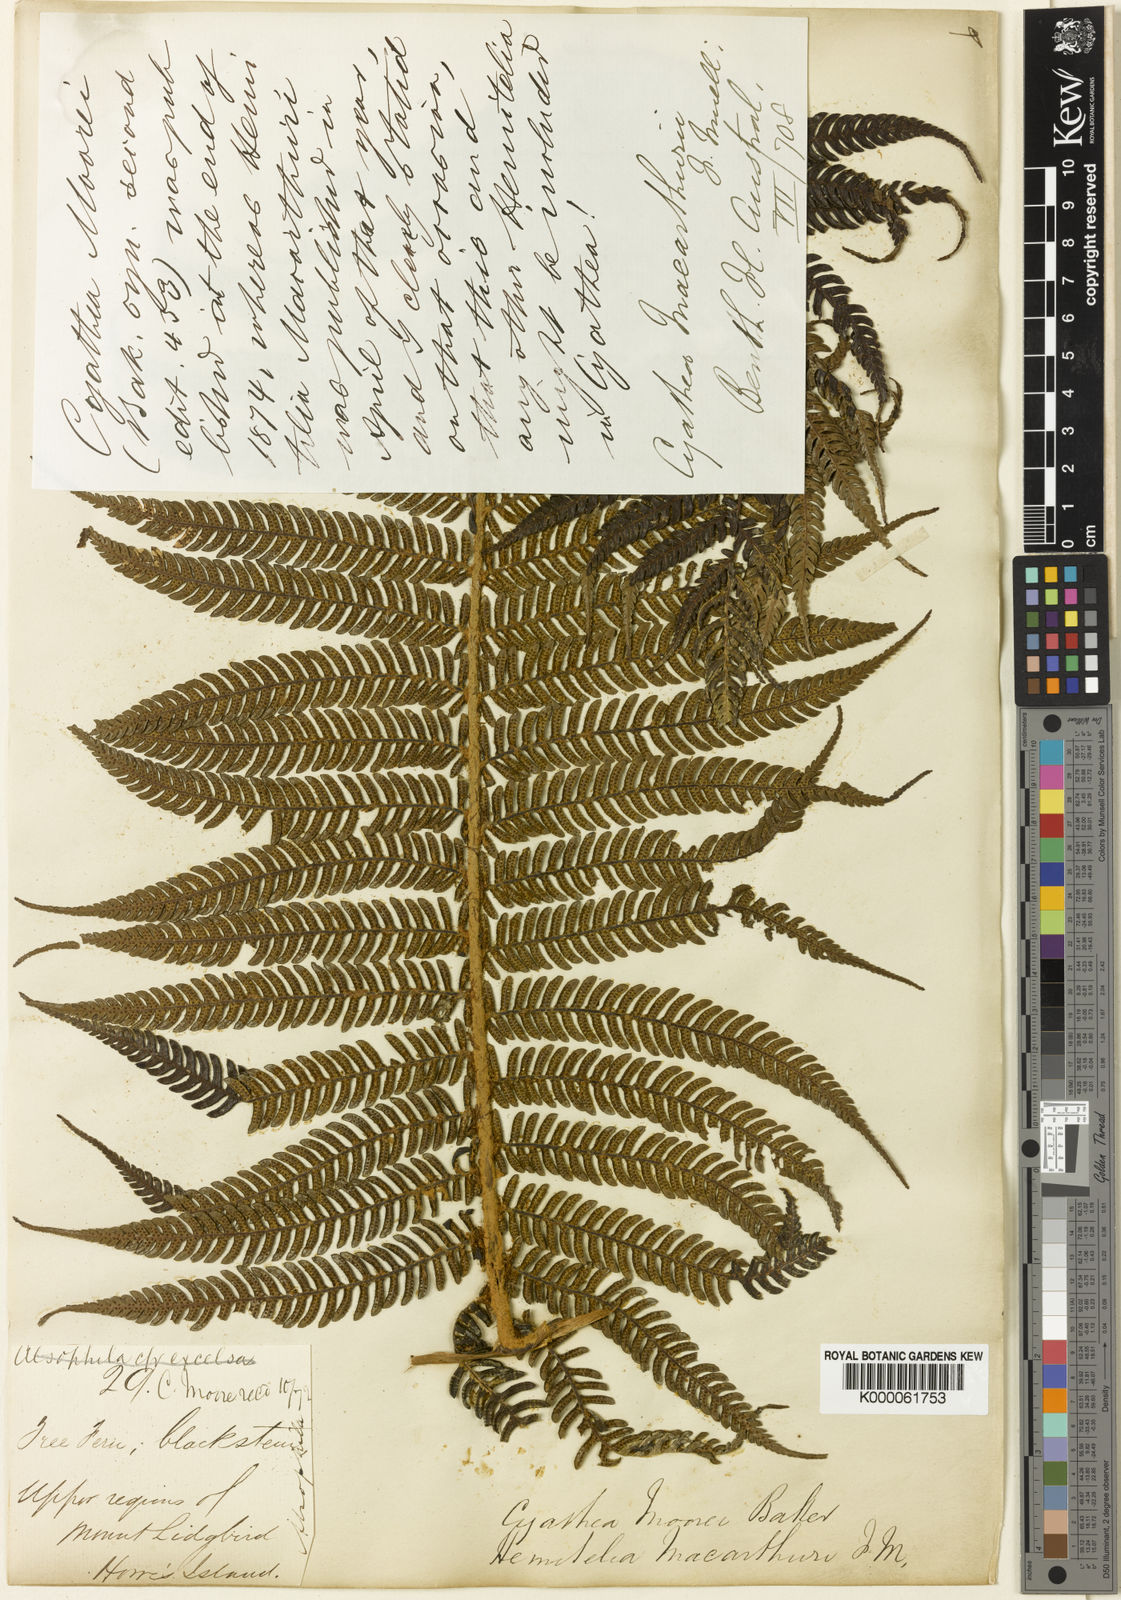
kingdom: Plantae
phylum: Tracheophyta
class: Polypodiopsida
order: Cyatheales
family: Cyatheaceae
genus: Alsophila
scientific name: Alsophila ferdinandii
